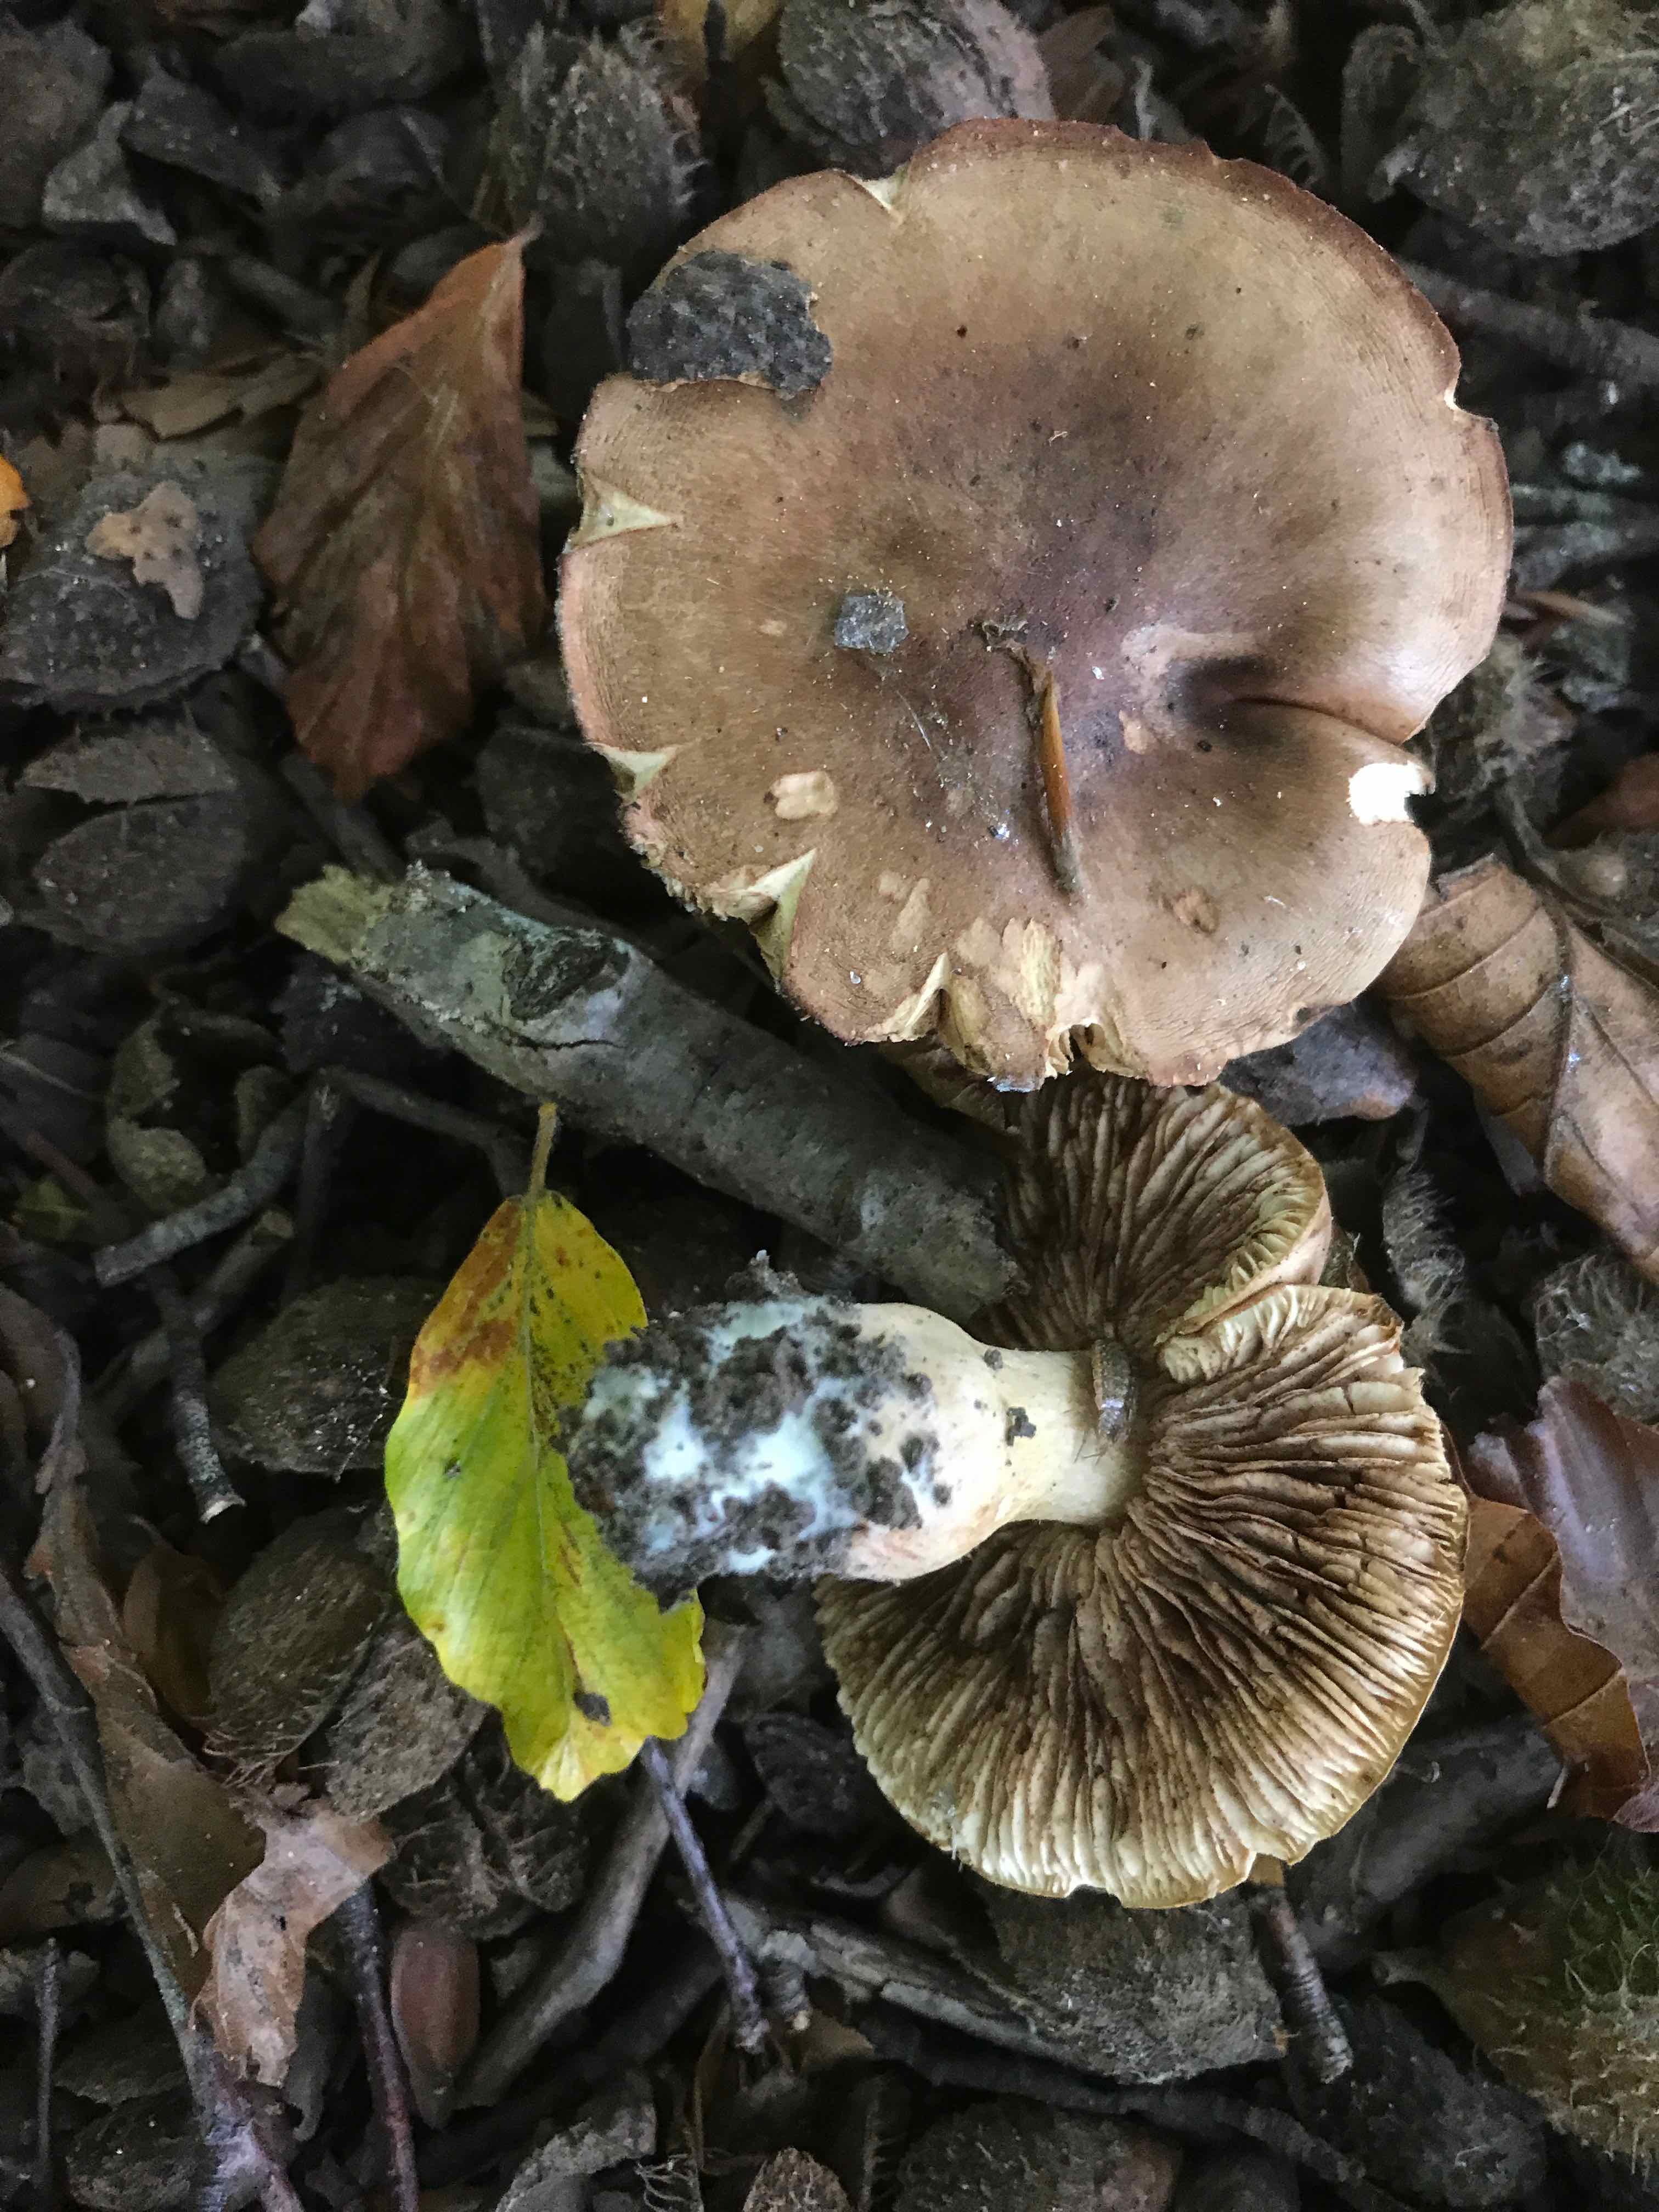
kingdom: Fungi
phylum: Basidiomycota
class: Agaricomycetes
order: Agaricales
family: Cortinariaceae
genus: Cortinarius
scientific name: Cortinarius
